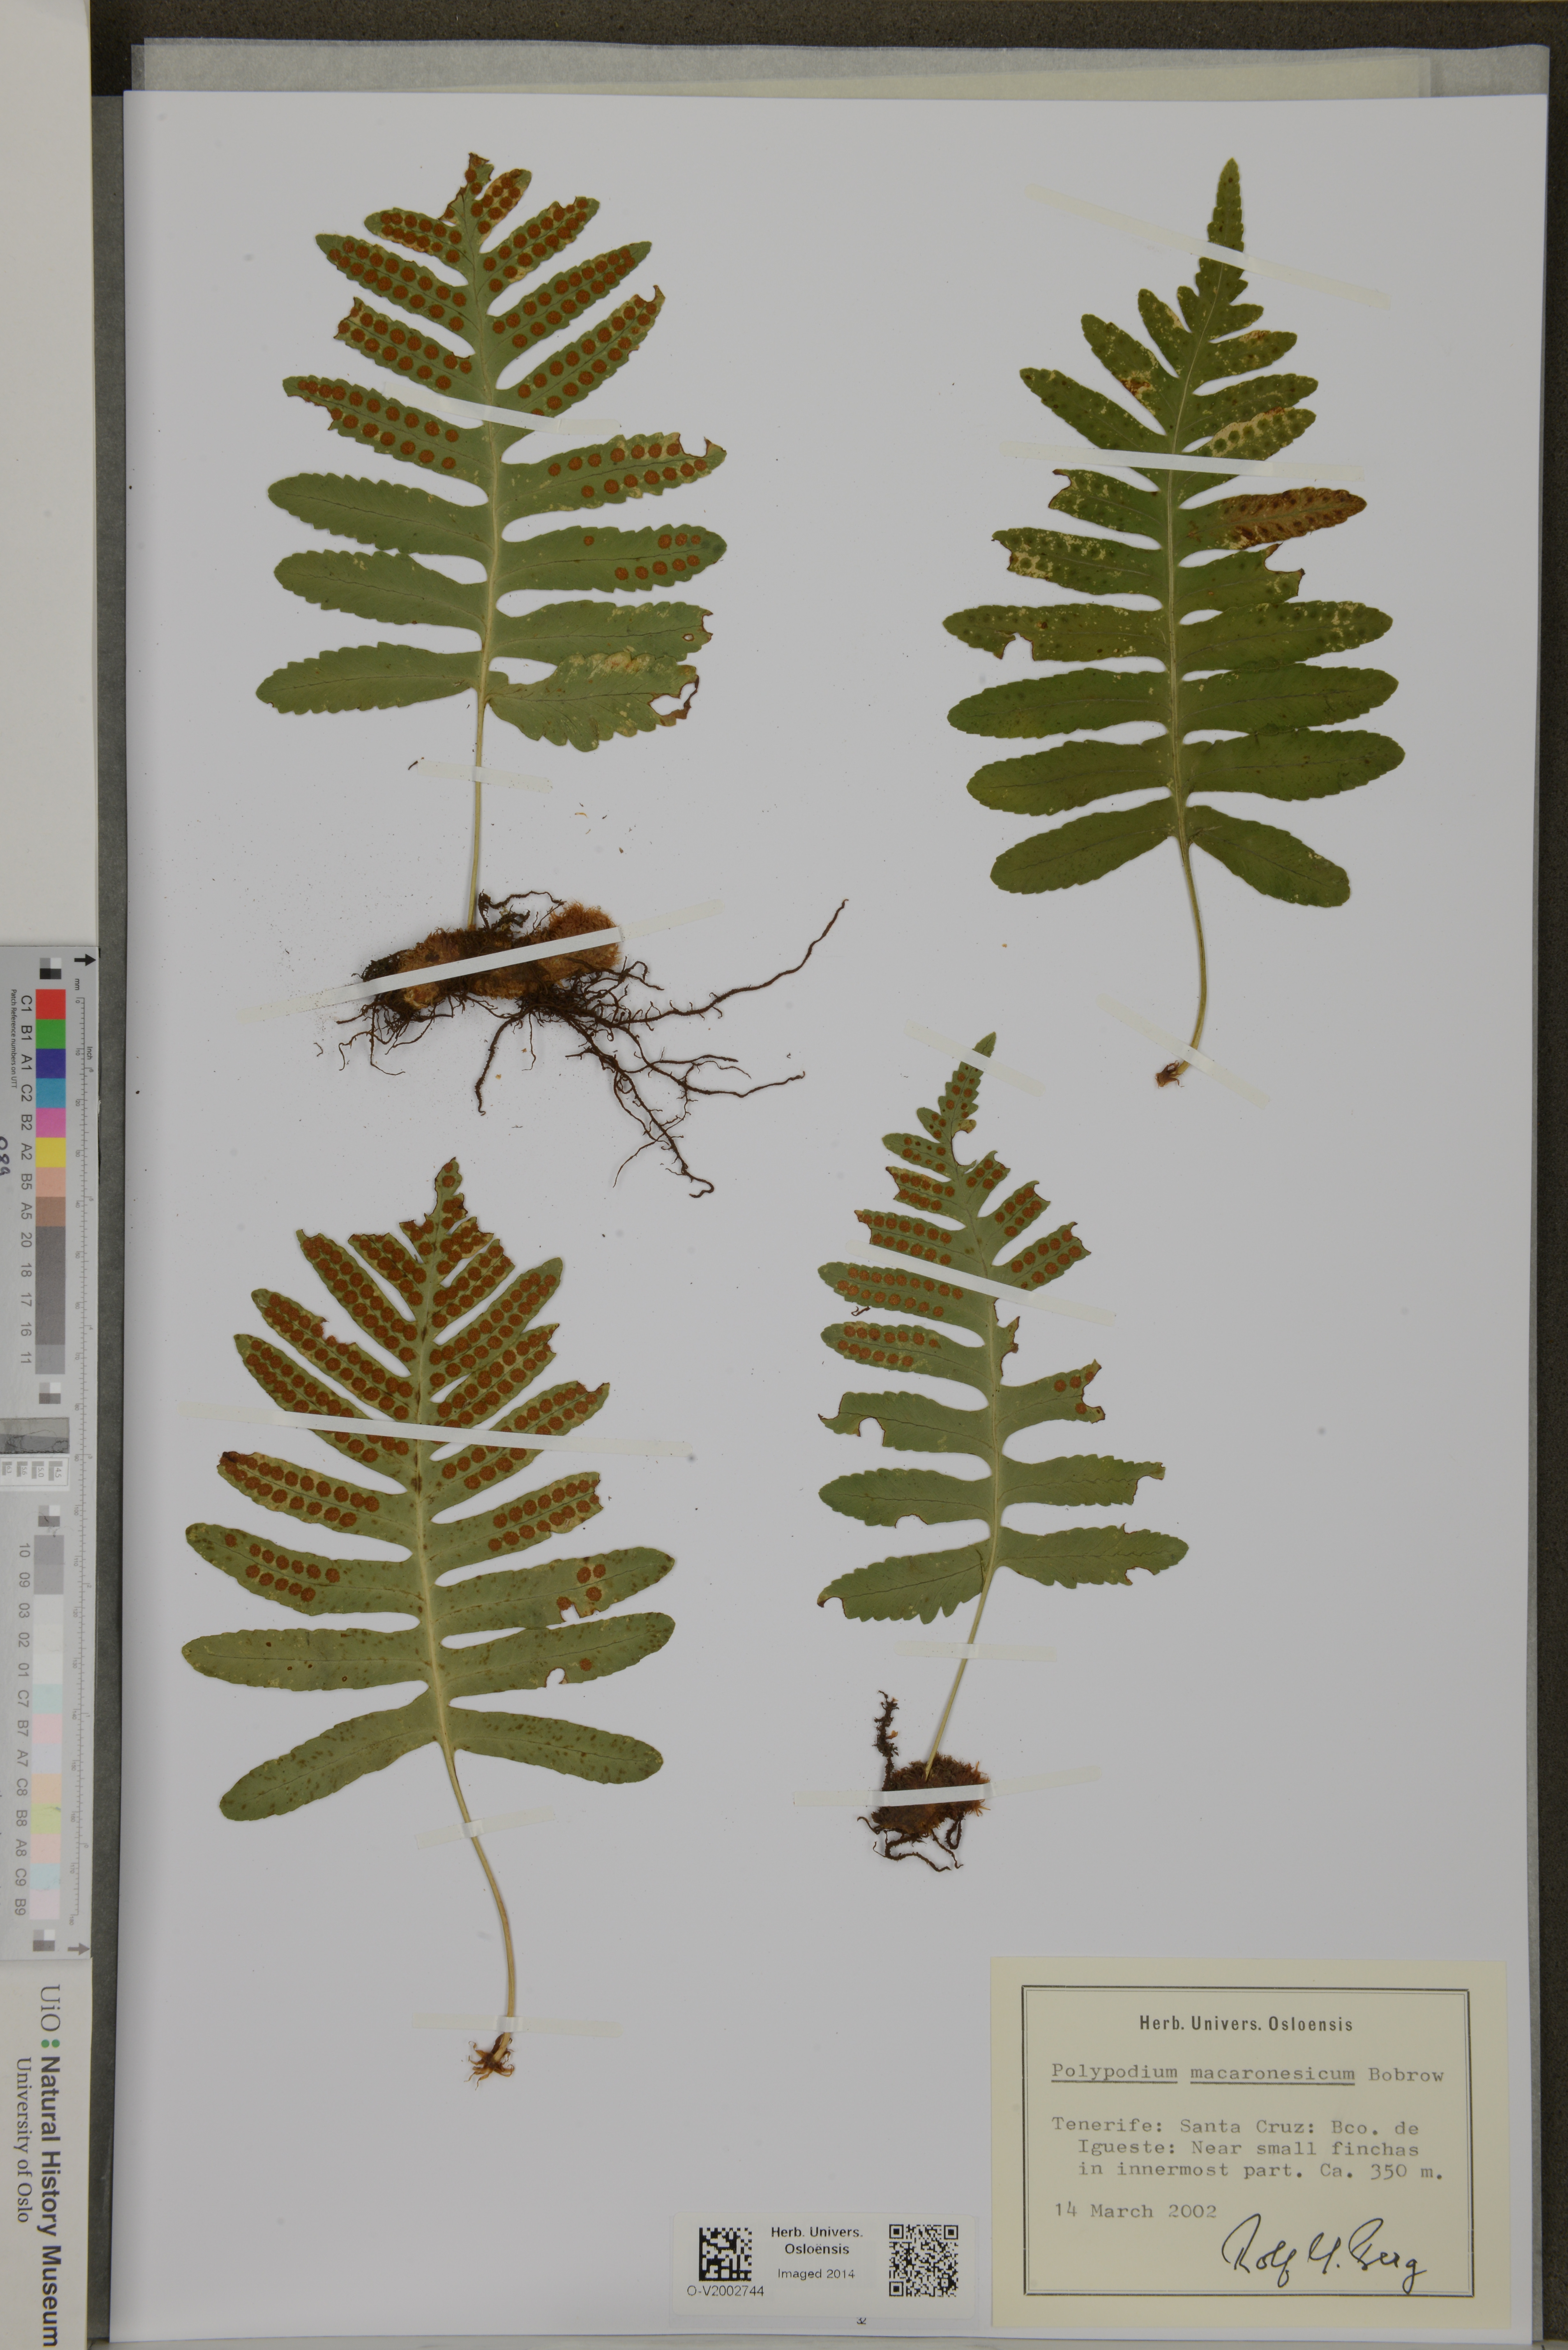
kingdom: Plantae
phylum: Tracheophyta
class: Polypodiopsida
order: Polypodiales
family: Polypodiaceae
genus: Polypodium
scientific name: Polypodium macaronesicum
